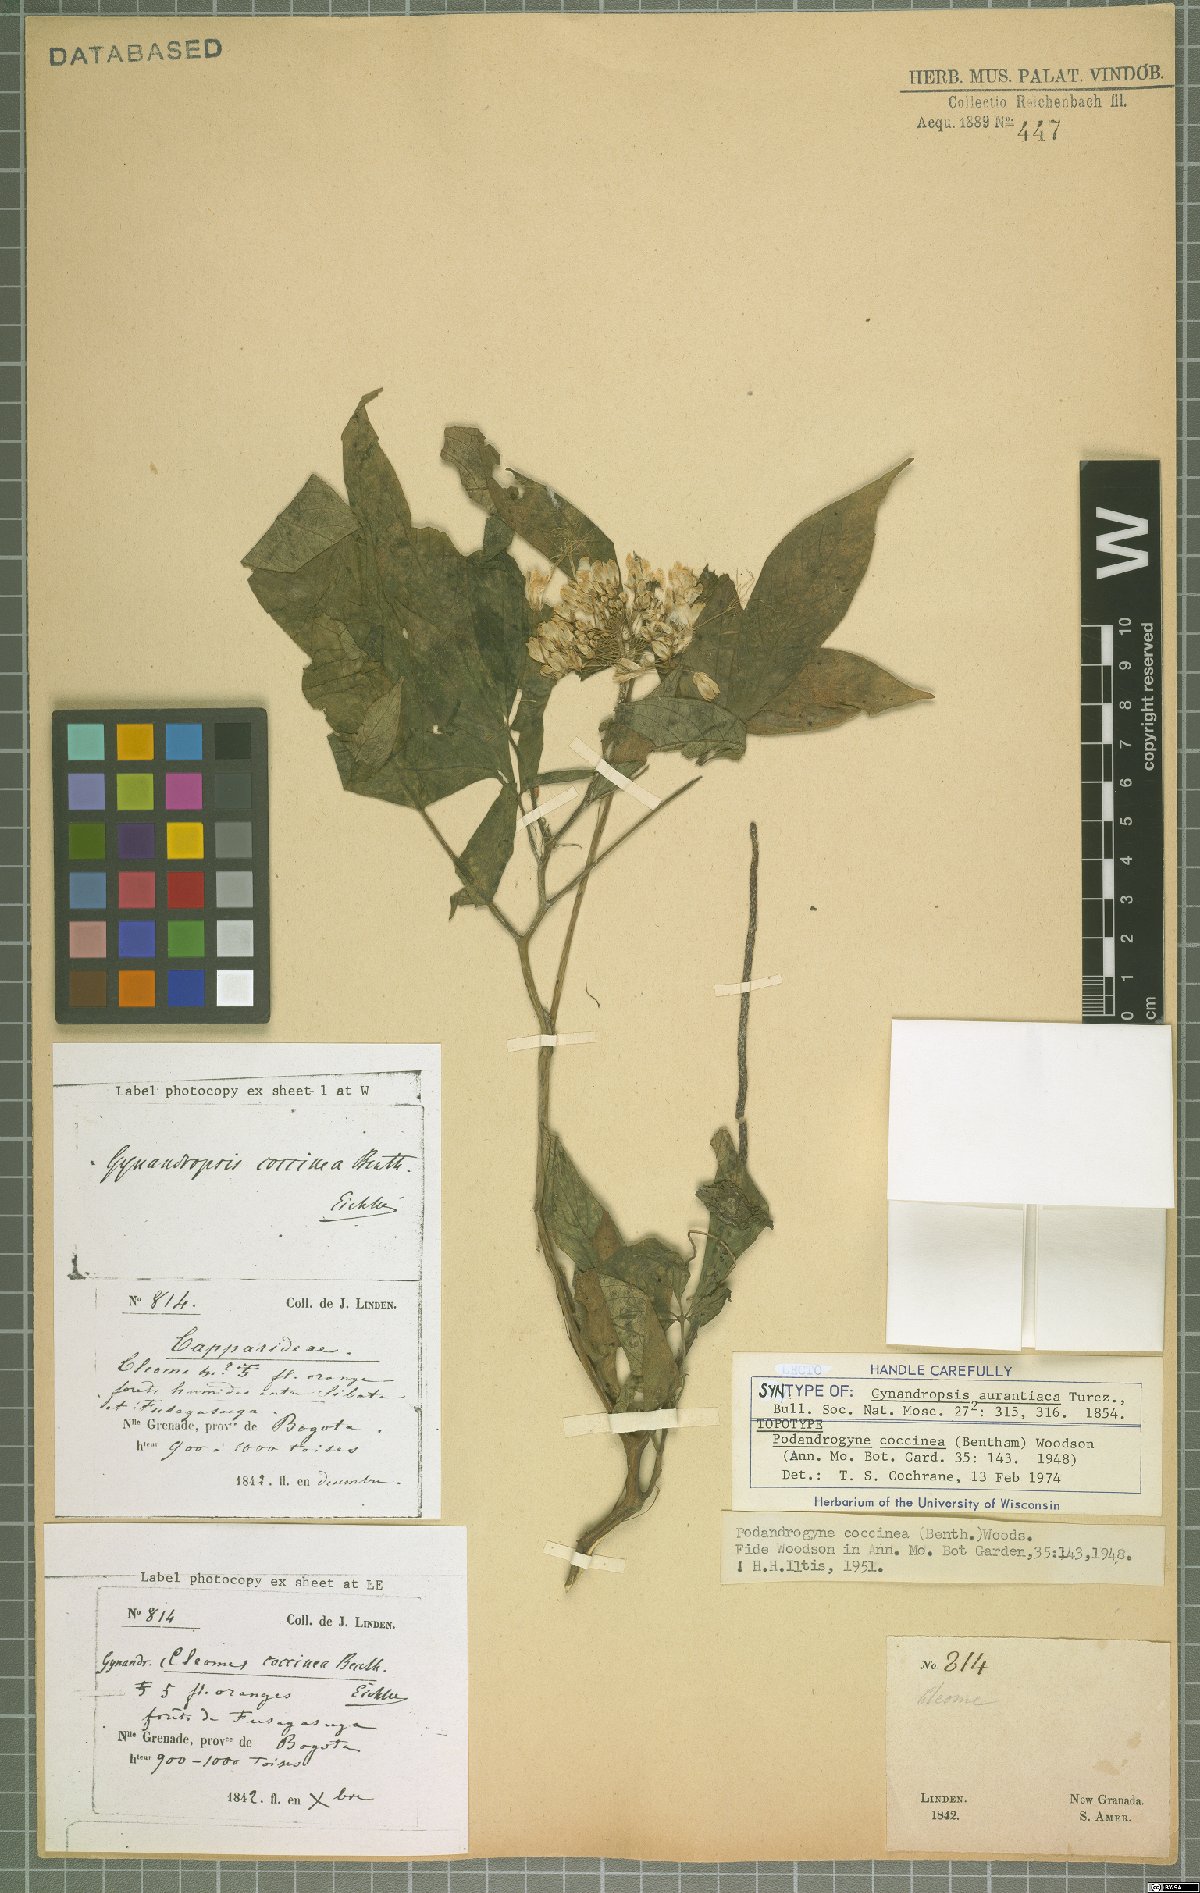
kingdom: Plantae
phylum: Tracheophyta
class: Magnoliopsida
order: Brassicales
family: Cleomaceae
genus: Podandrogyne
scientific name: Podandrogyne coccinea
